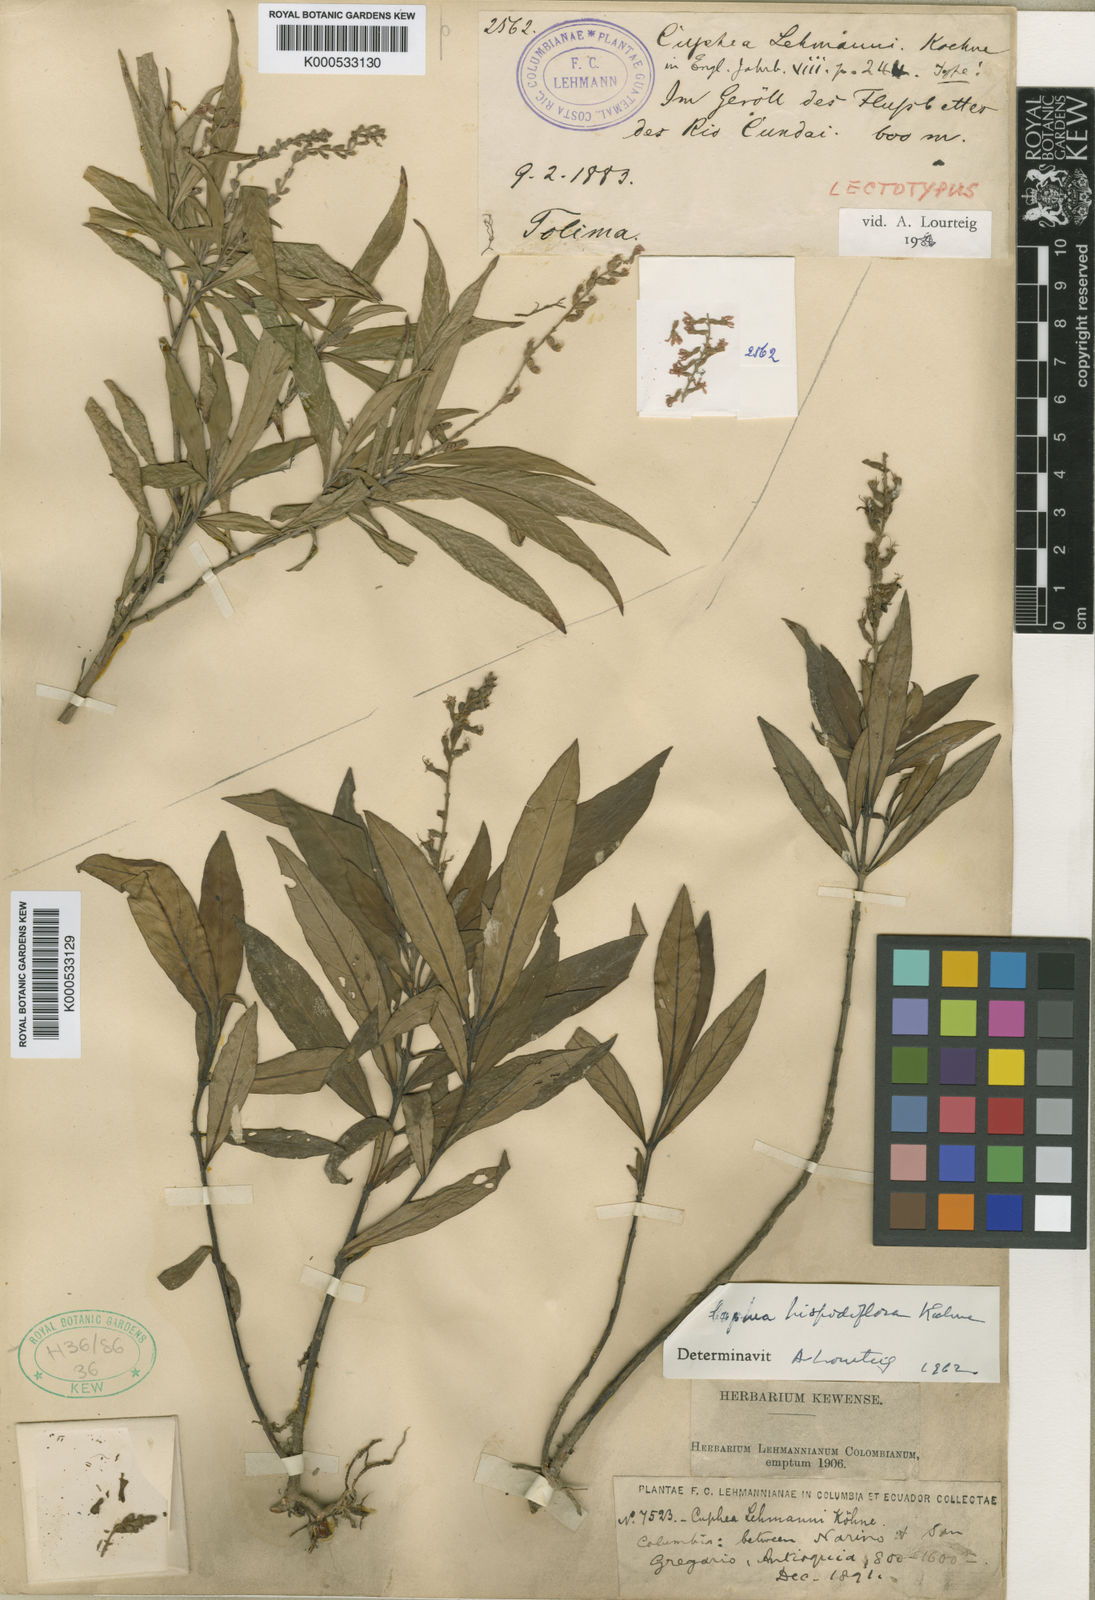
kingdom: Plantae
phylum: Tracheophyta
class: Magnoliopsida
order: Myrtales
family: Lythraceae
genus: Cuphea
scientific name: Cuphea hispidiflora
